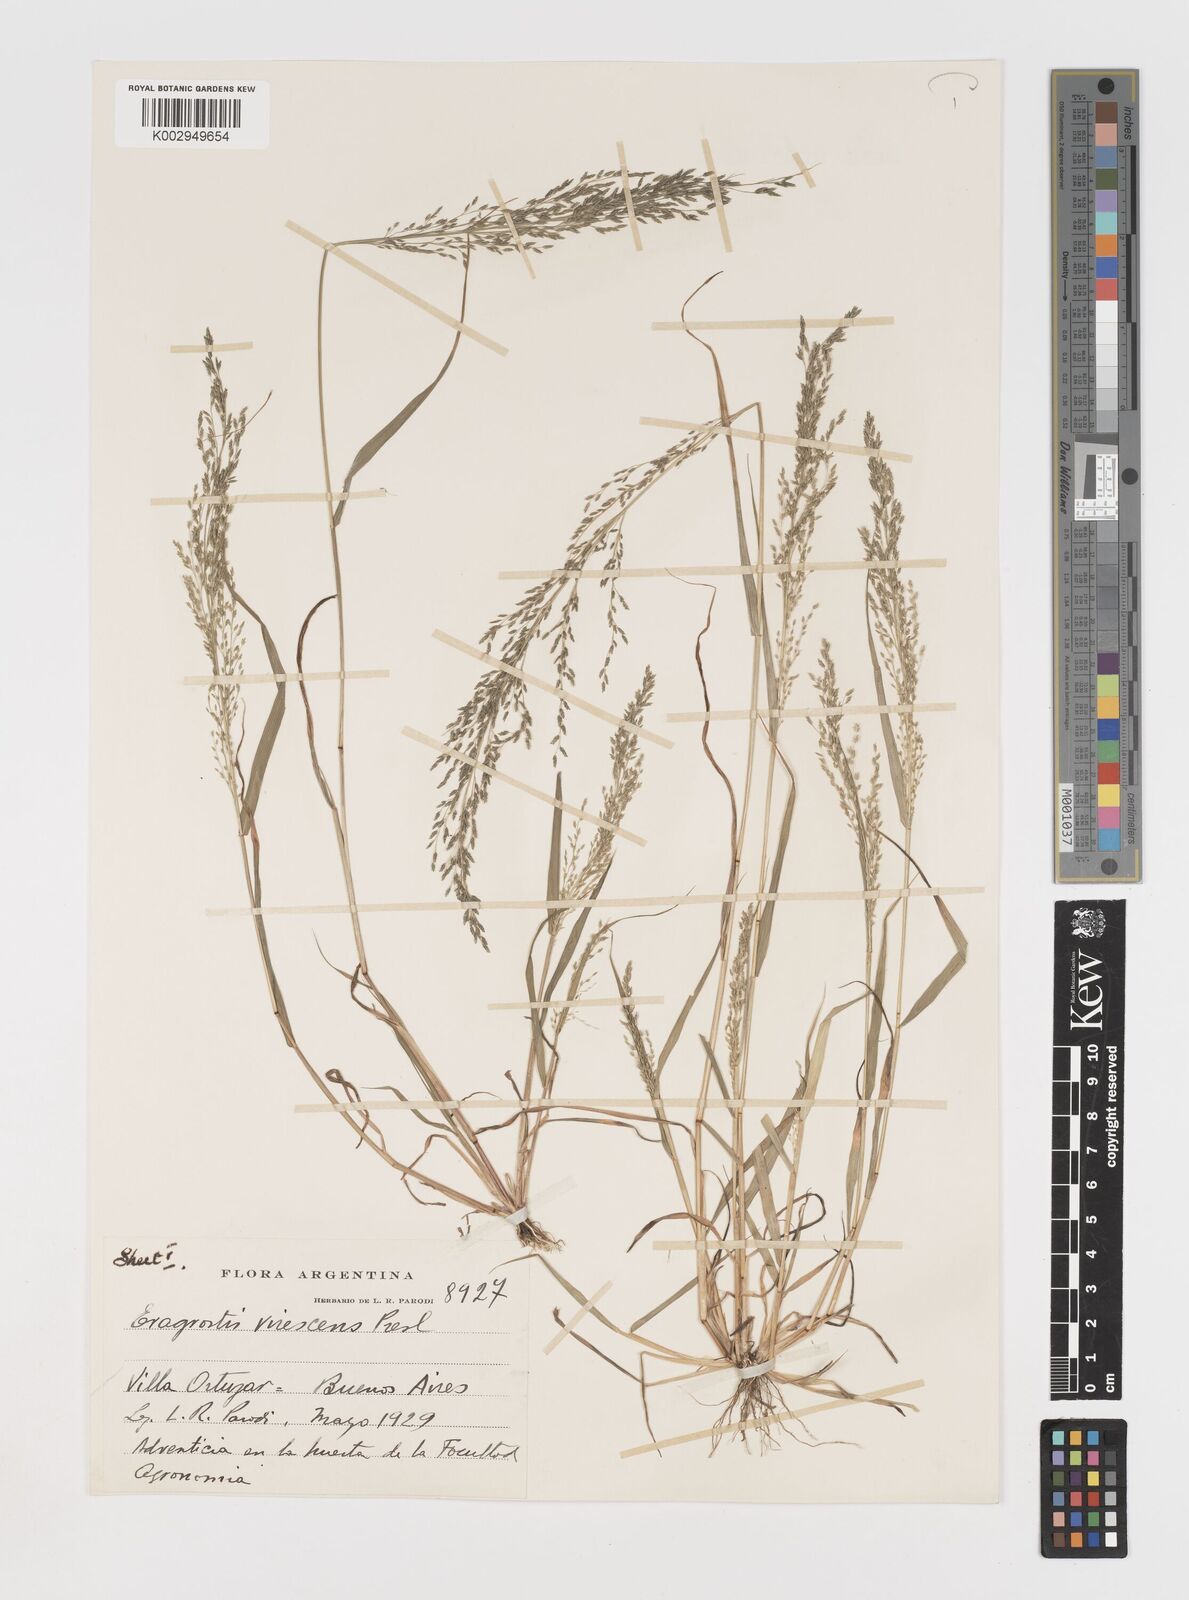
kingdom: Plantae
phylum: Tracheophyta
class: Liliopsida
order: Poales
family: Poaceae
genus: Eragrostis
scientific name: Eragrostis mexicana
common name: Mexican love grass
